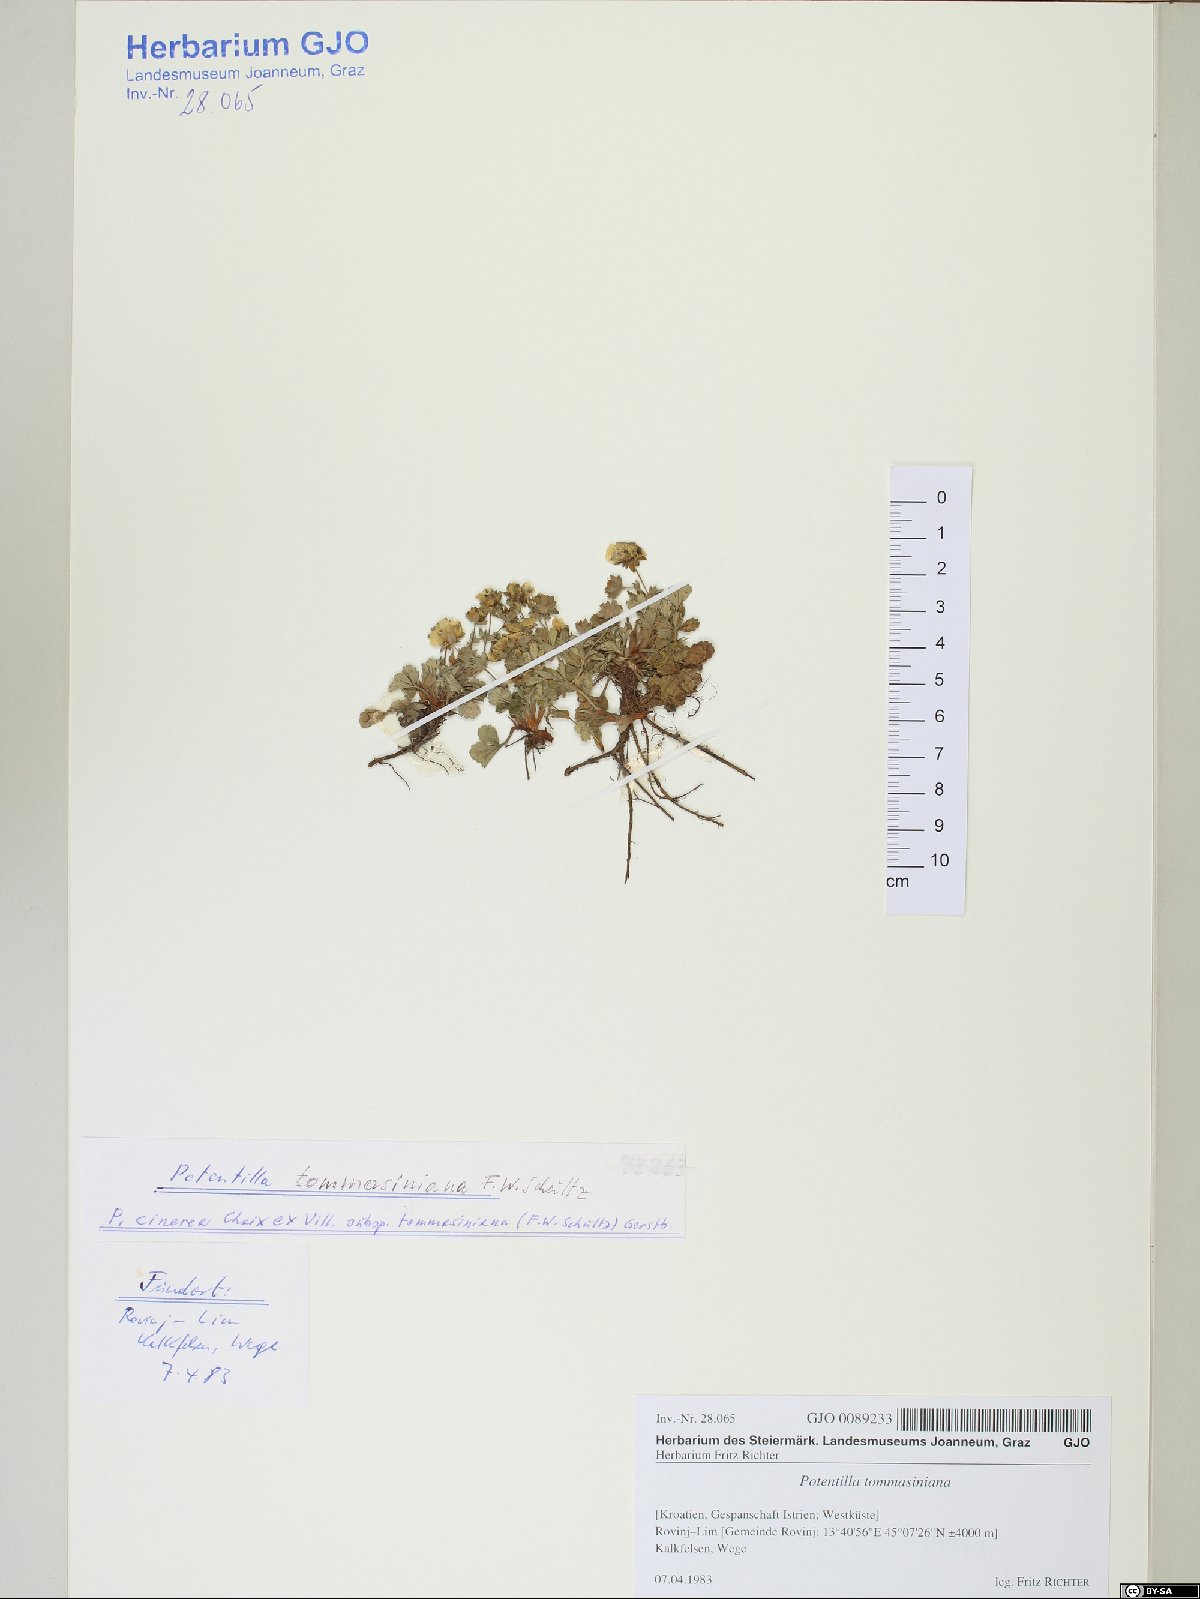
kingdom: Plantae
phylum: Tracheophyta
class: Magnoliopsida
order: Rosales
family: Rosaceae
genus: Potentilla
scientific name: Potentilla cinerea
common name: Ashy cinquefoil
